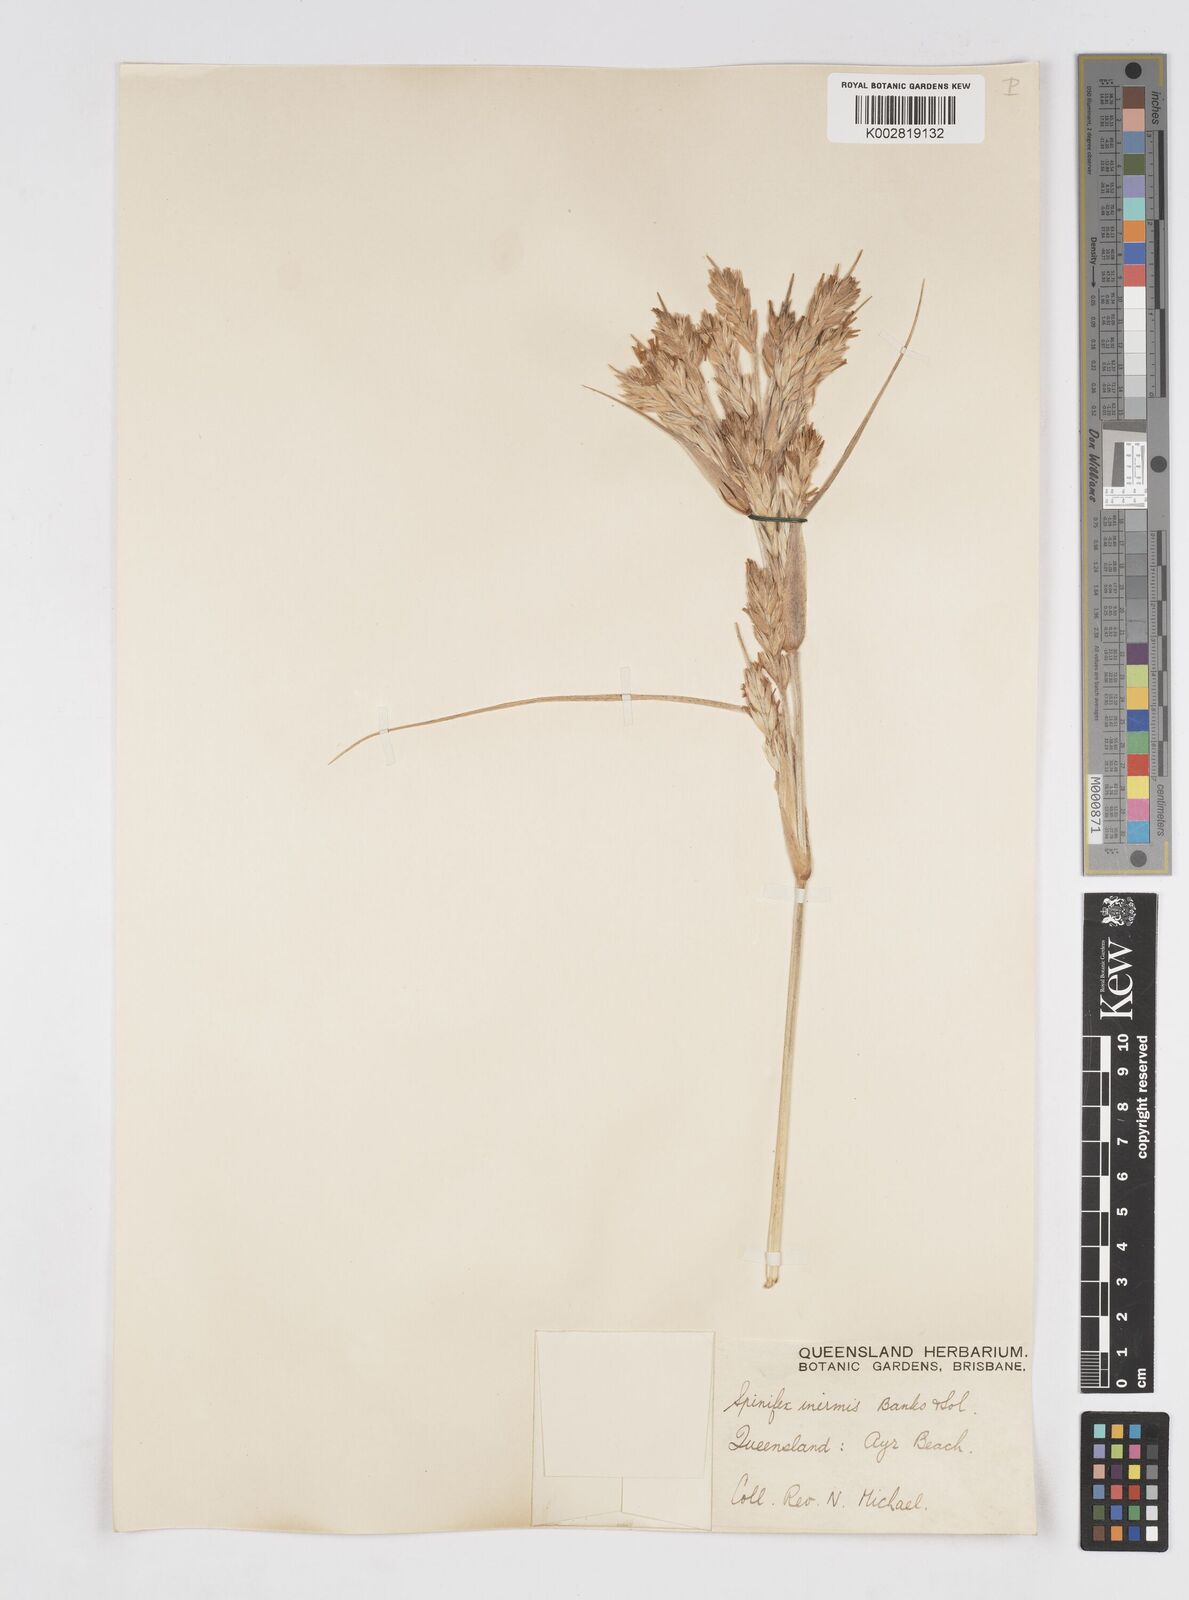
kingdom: Plantae
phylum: Tracheophyta
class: Liliopsida
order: Poales
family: Poaceae
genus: Spinifex
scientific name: Spinifex sericeus
